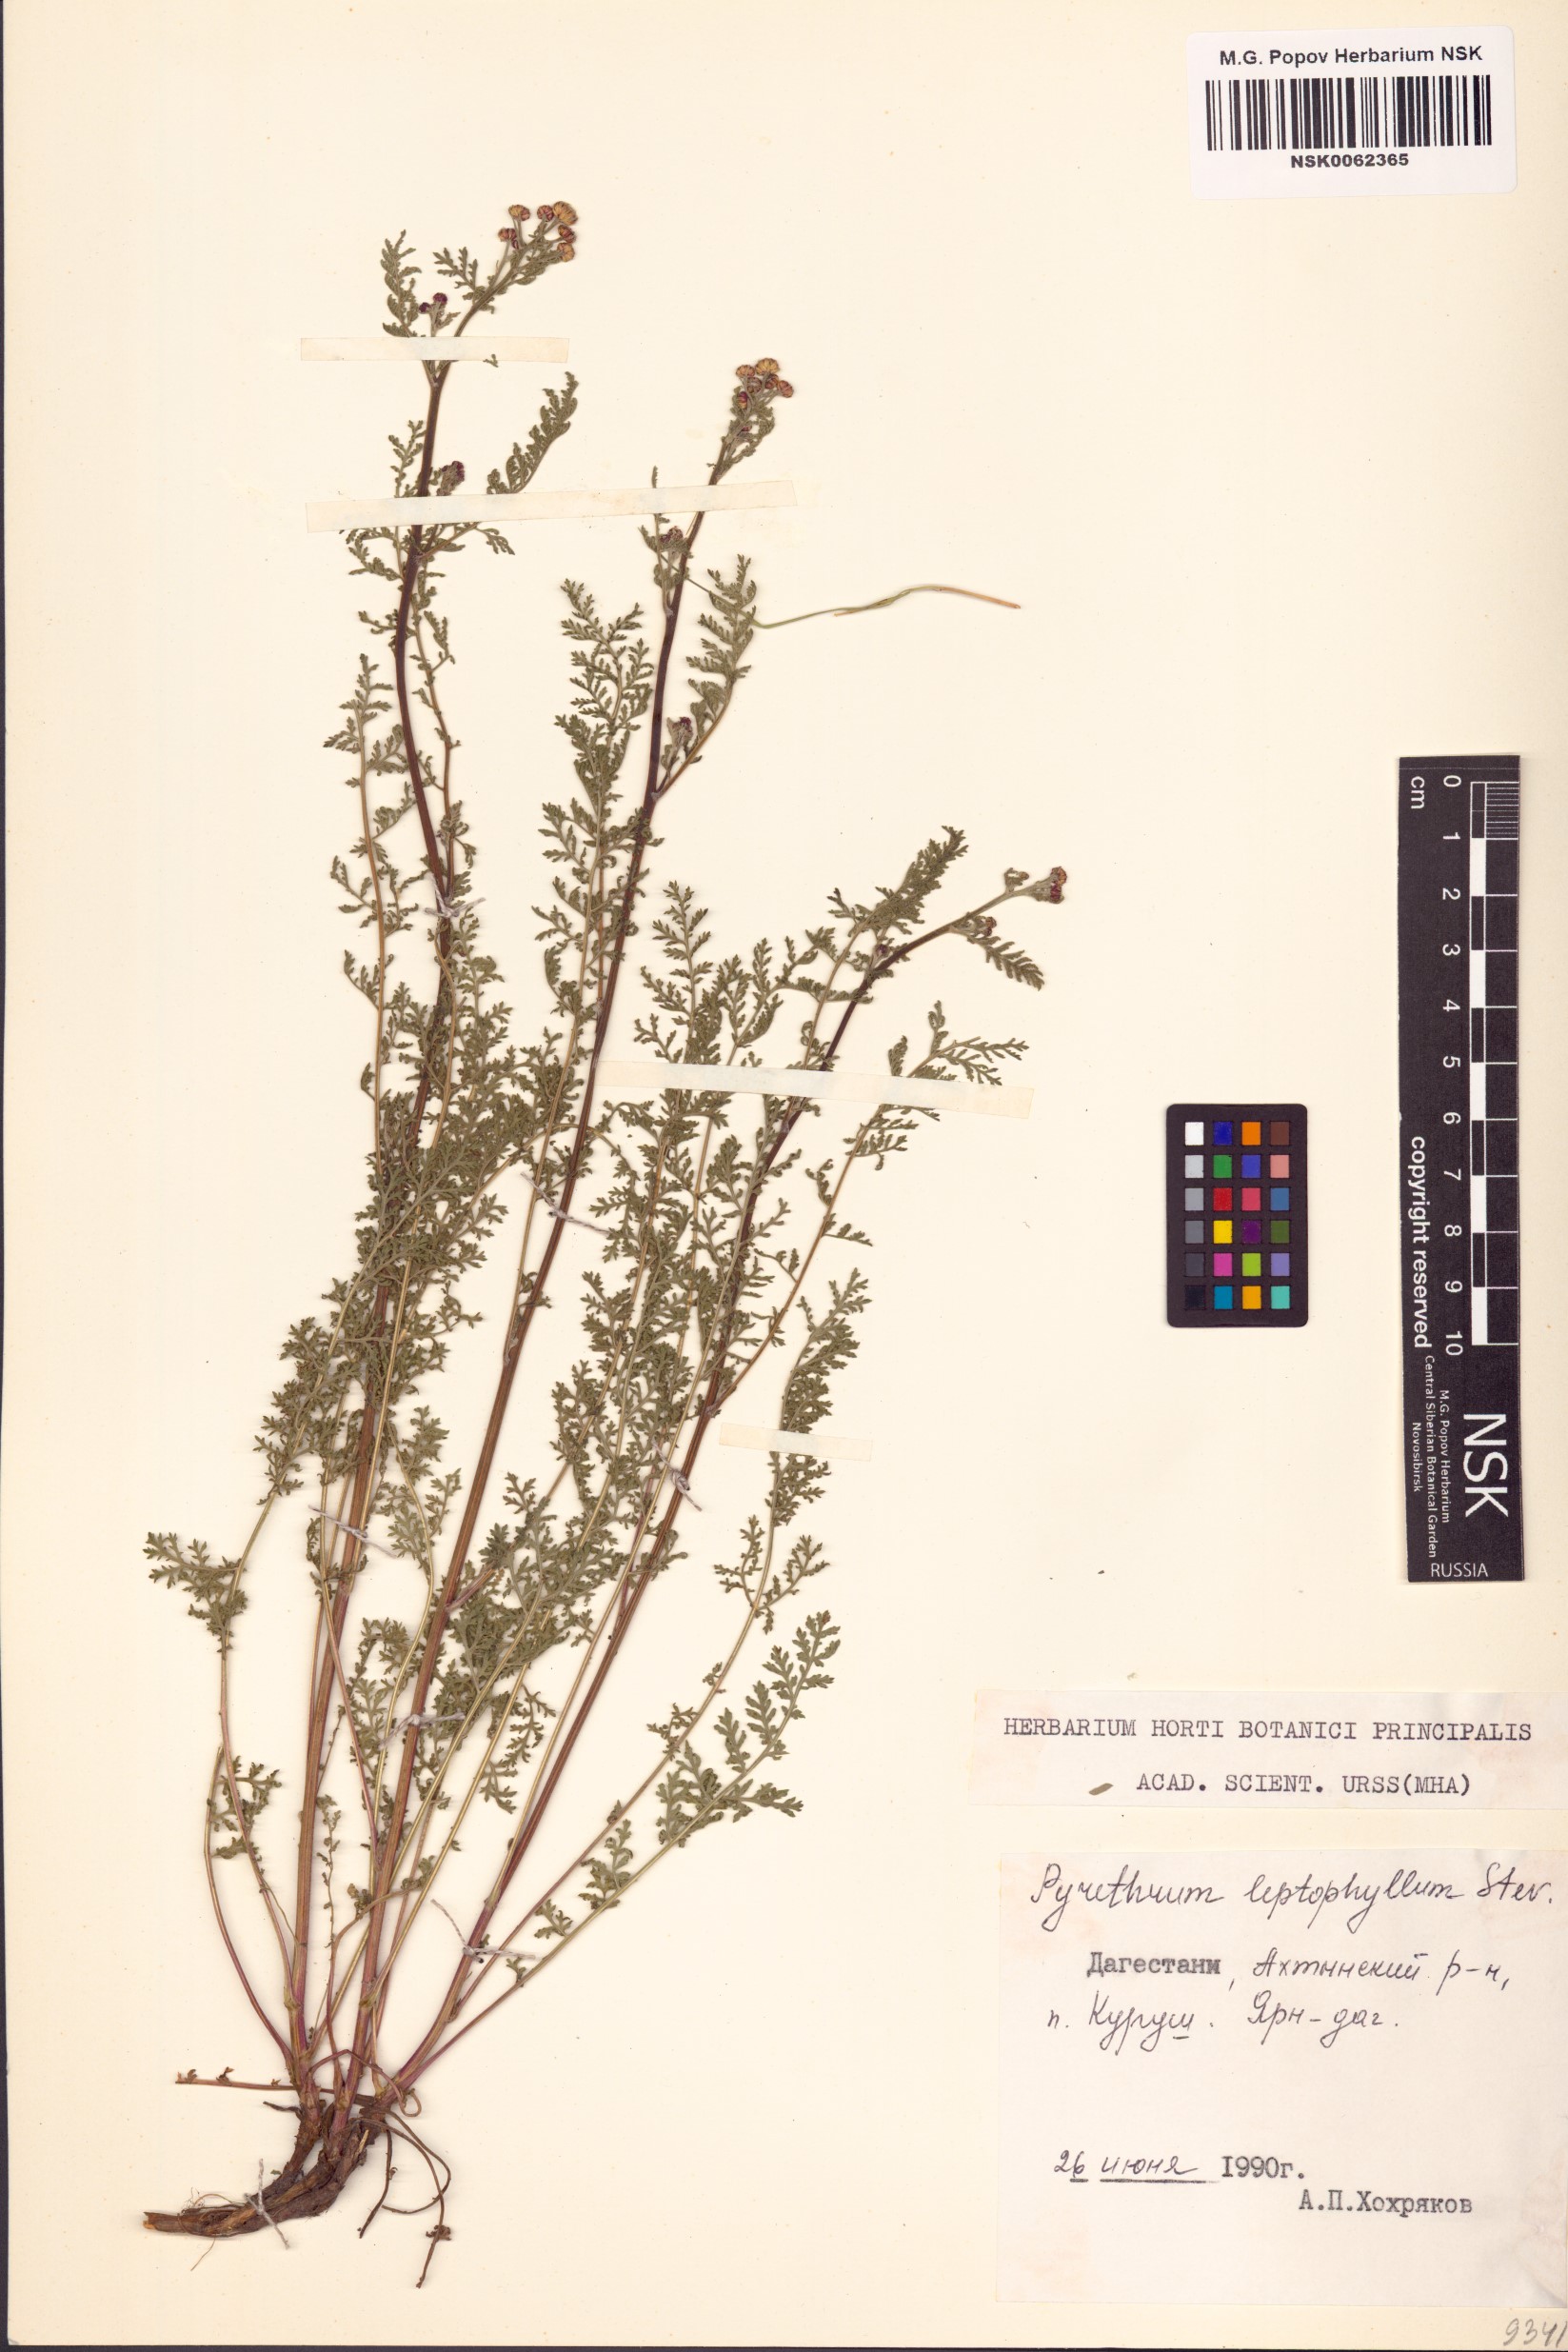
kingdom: Plantae
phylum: Tracheophyta
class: Magnoliopsida
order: Asterales
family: Asteraceae
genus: Tanacetum
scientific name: Tanacetum leptophyllum
